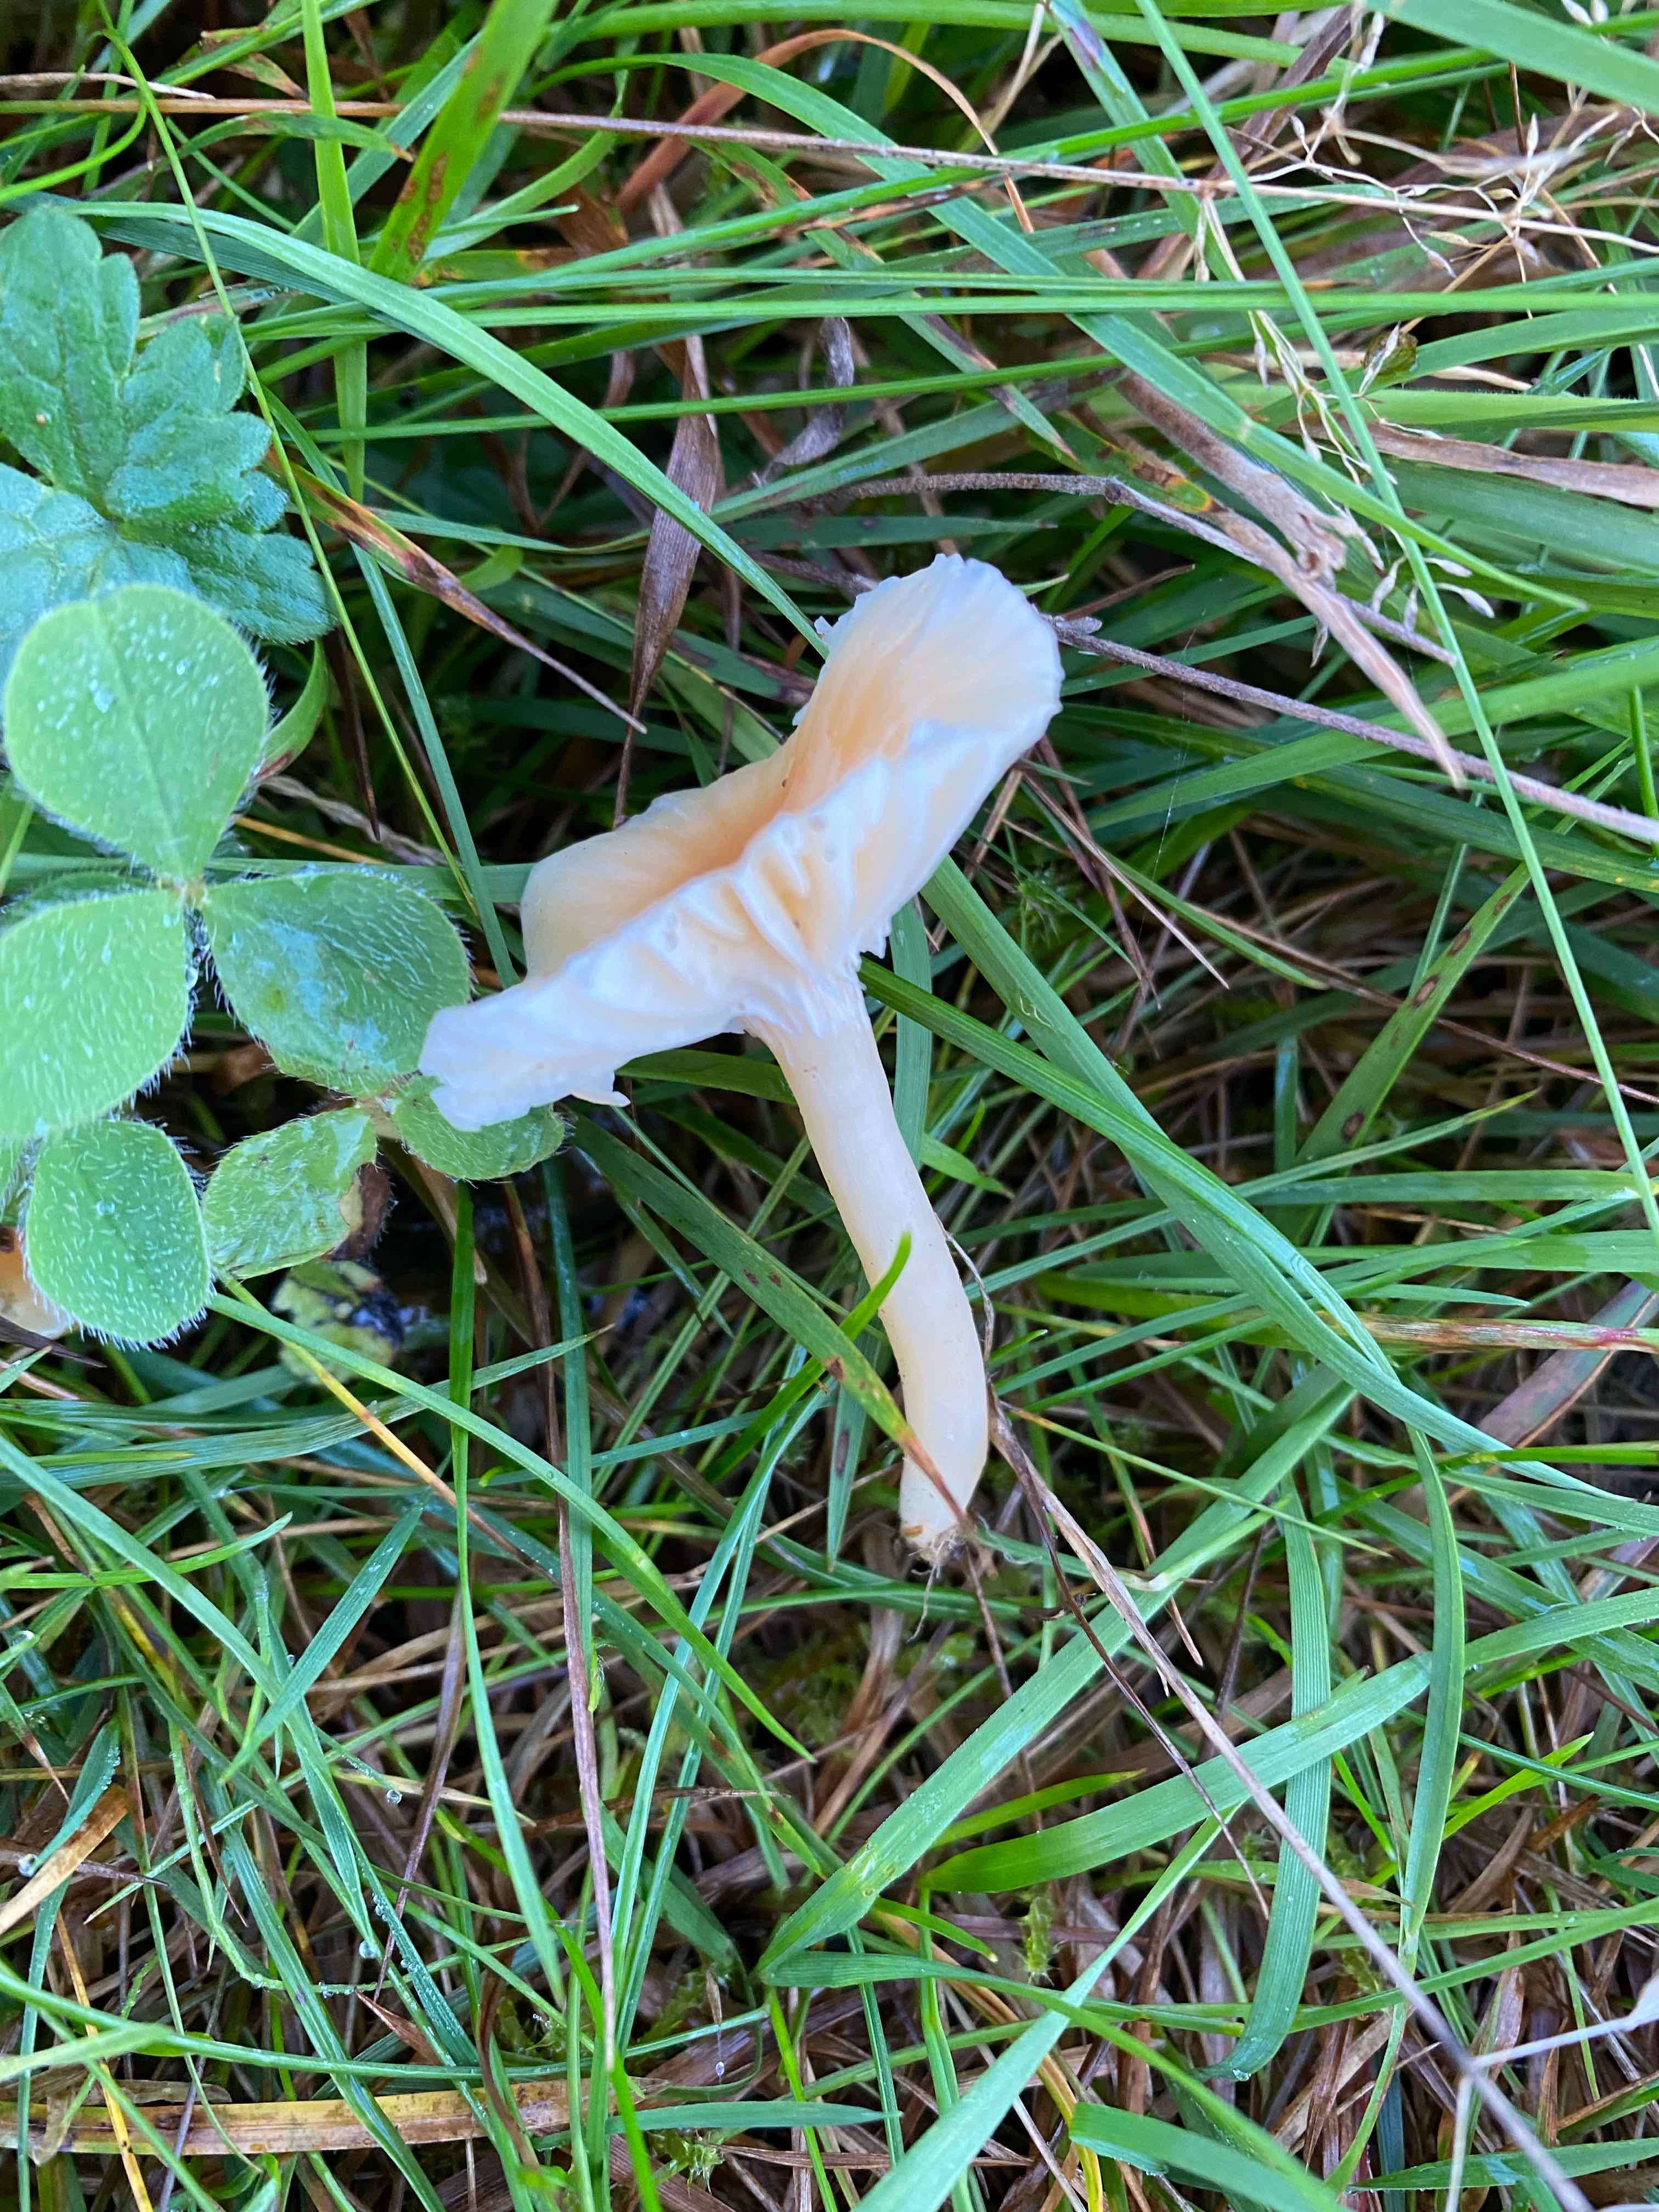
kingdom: Fungi
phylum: Basidiomycota
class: Agaricomycetes
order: Agaricales
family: Hygrophoraceae
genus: Cuphophyllus
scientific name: Cuphophyllus pratensis
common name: eng-vokshat
